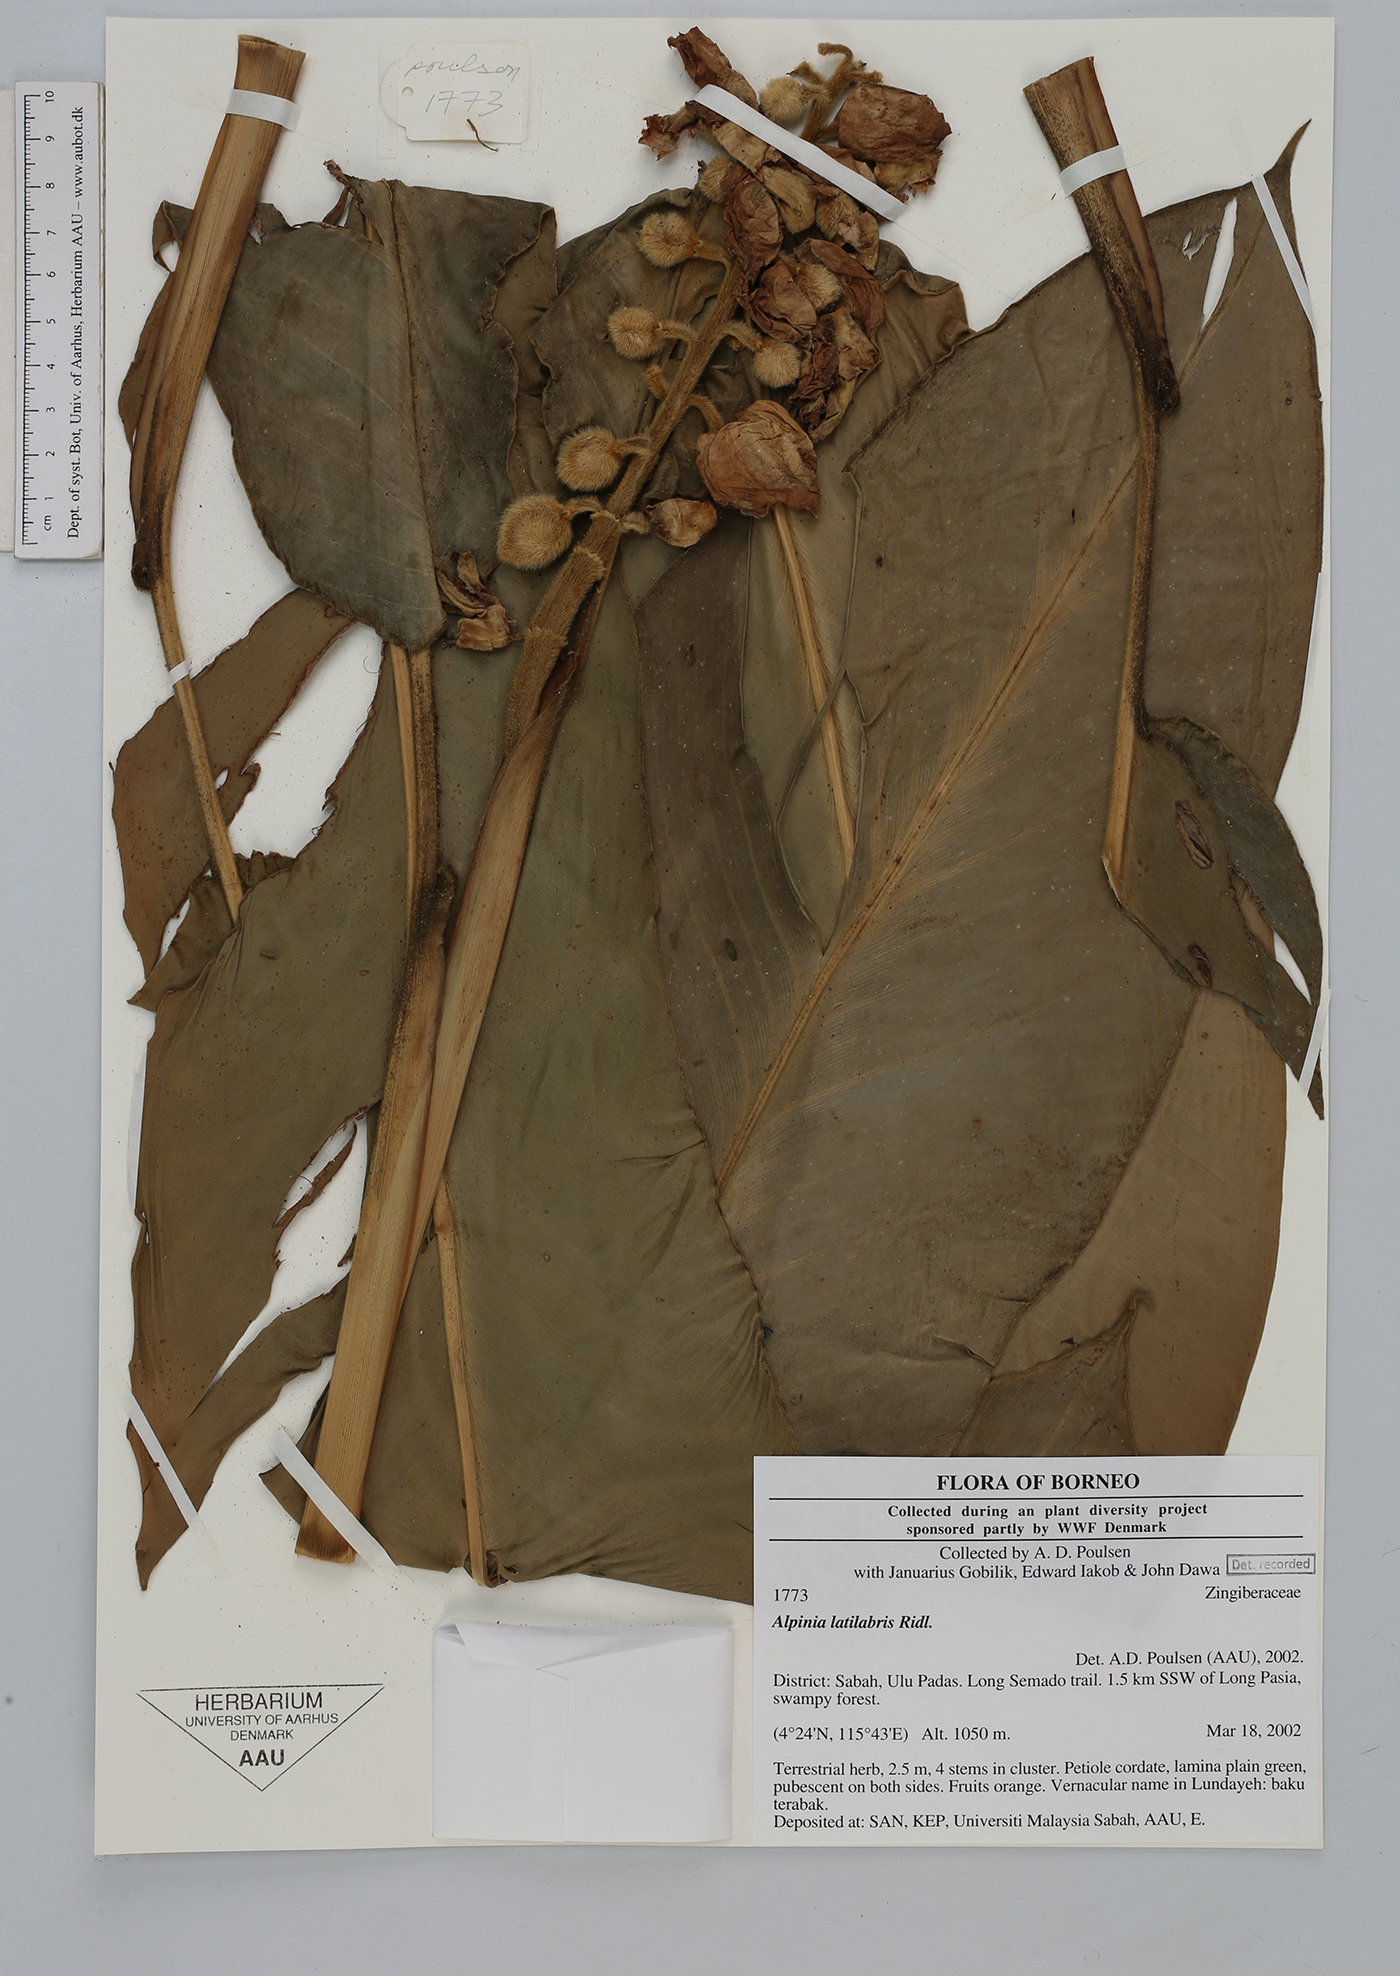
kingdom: Plantae
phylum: Tracheophyta
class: Liliopsida
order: Zingiberales
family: Zingiberaceae
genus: Alpinia
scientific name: Alpinia latilabris
